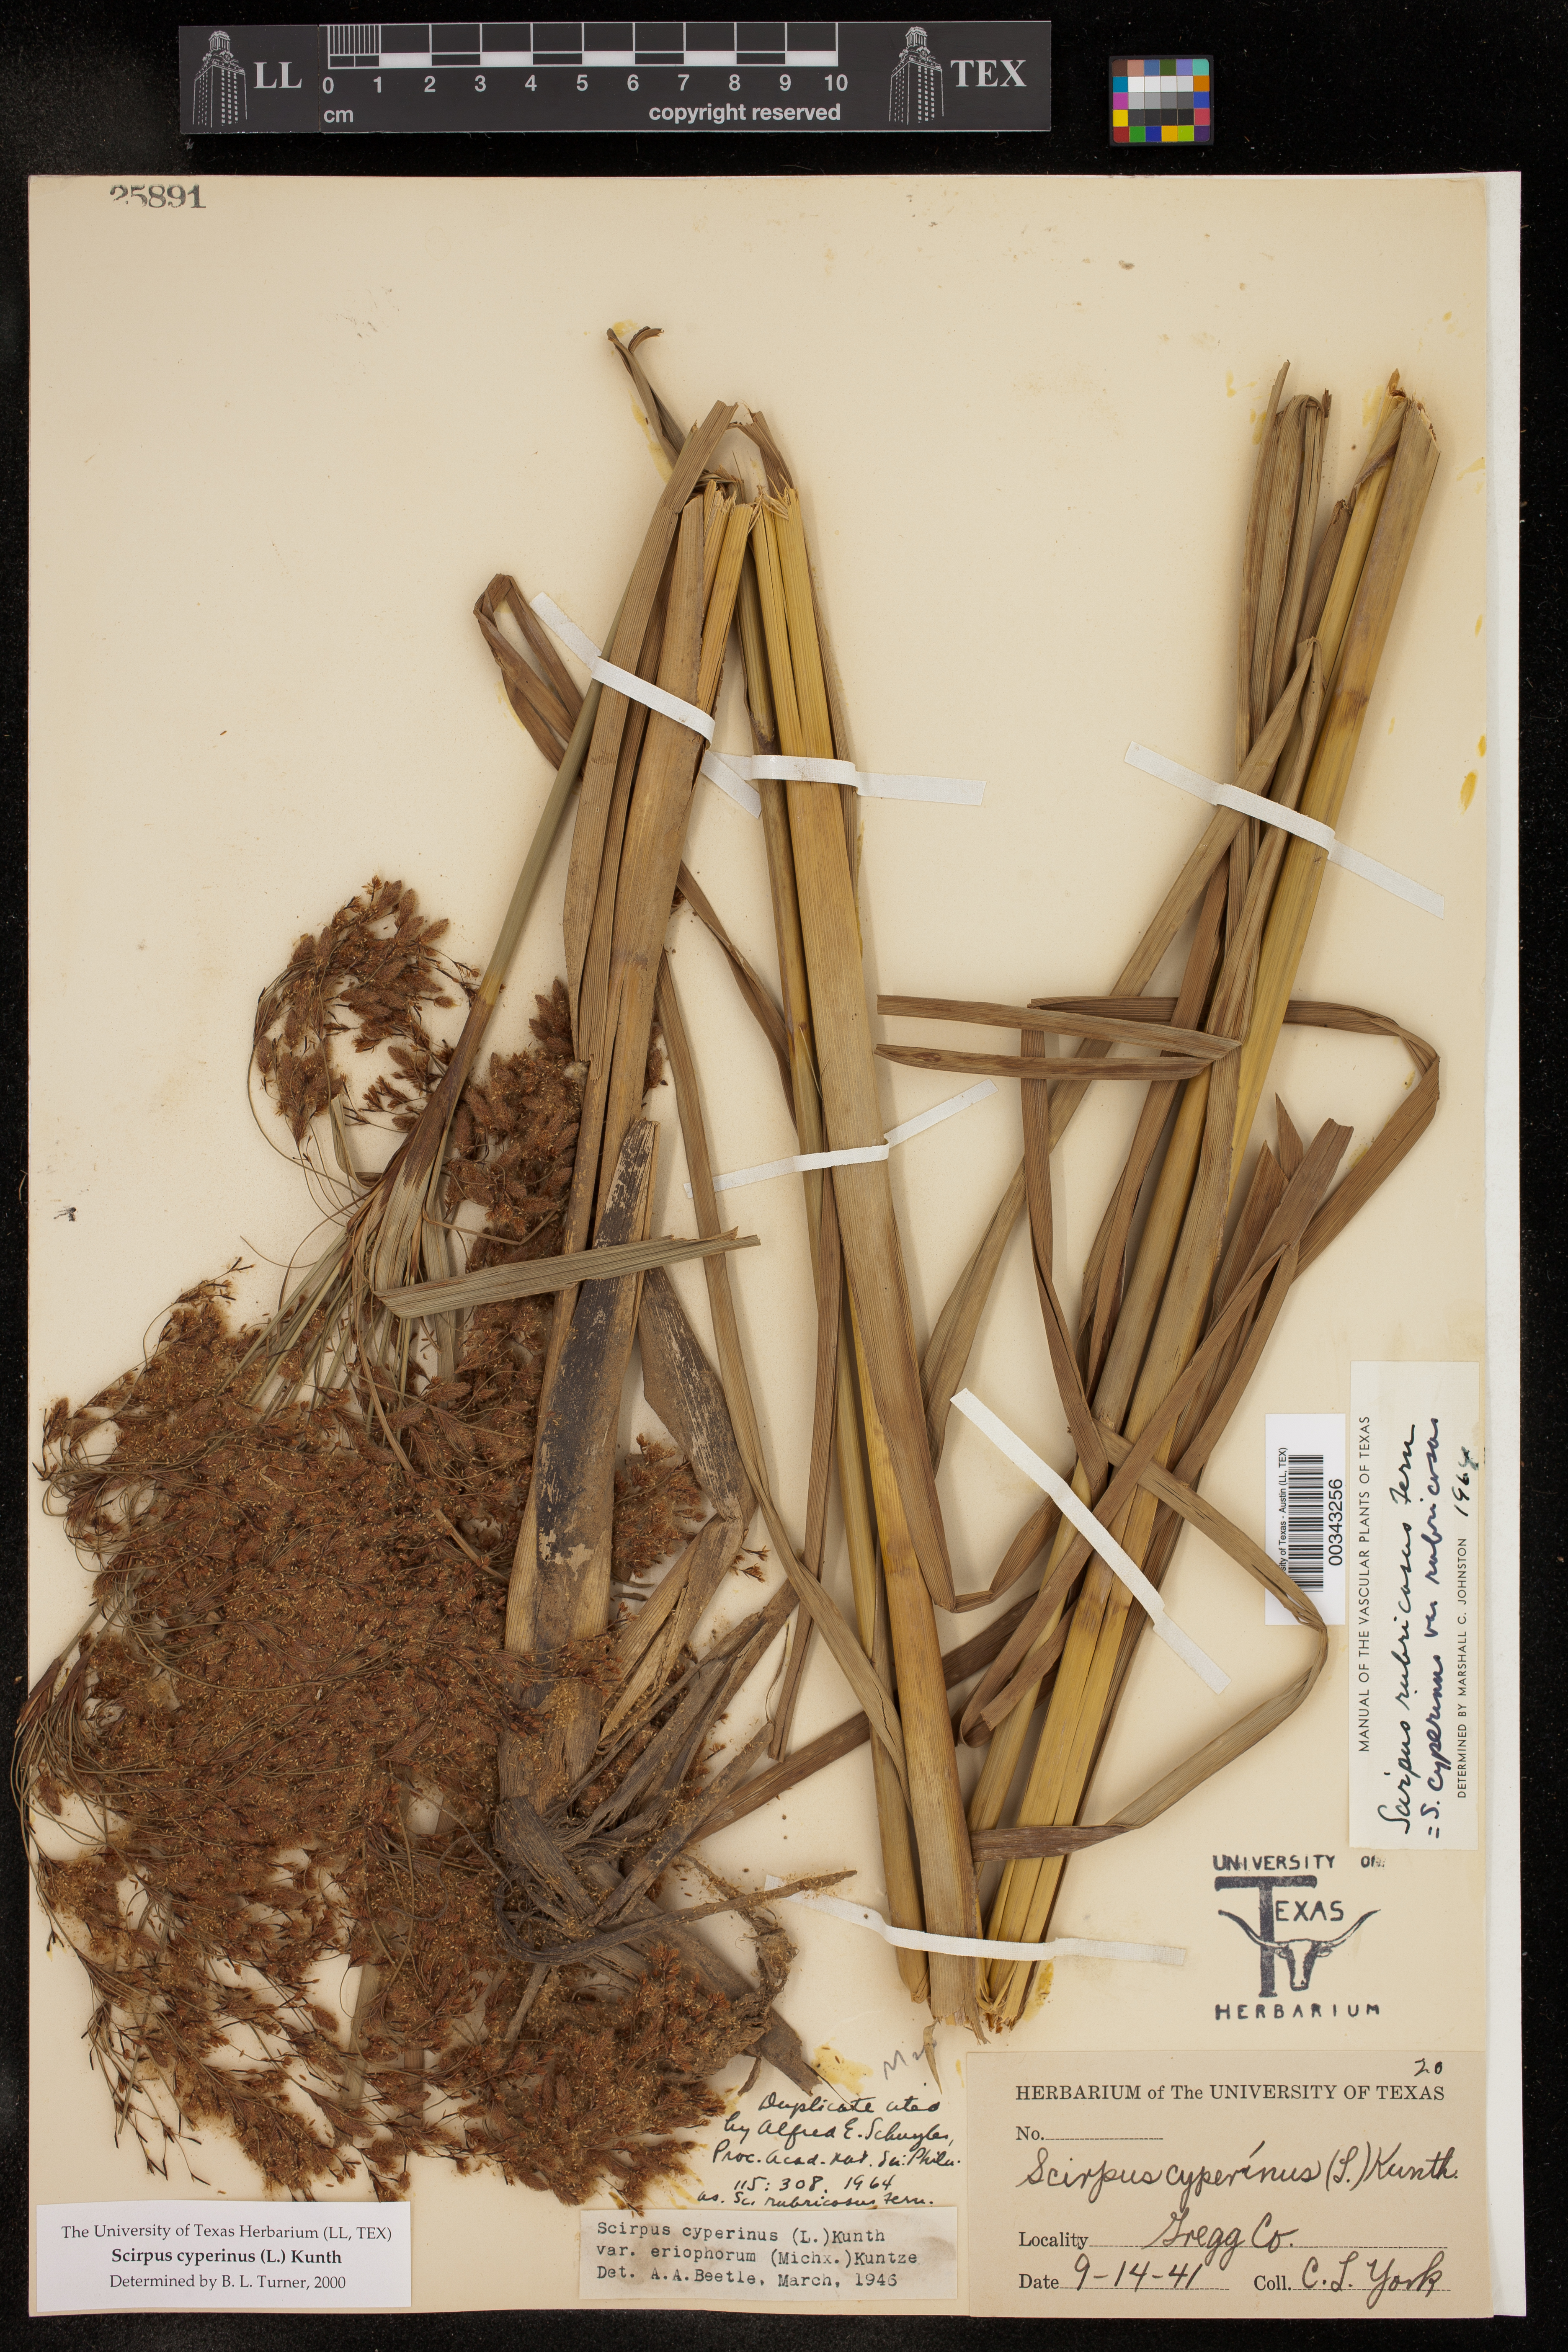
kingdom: Plantae
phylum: Tracheophyta
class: Liliopsida
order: Poales
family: Cyperaceae
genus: Scirpus
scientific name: Scirpus cyperinus
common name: Black-sheathed bulrush
